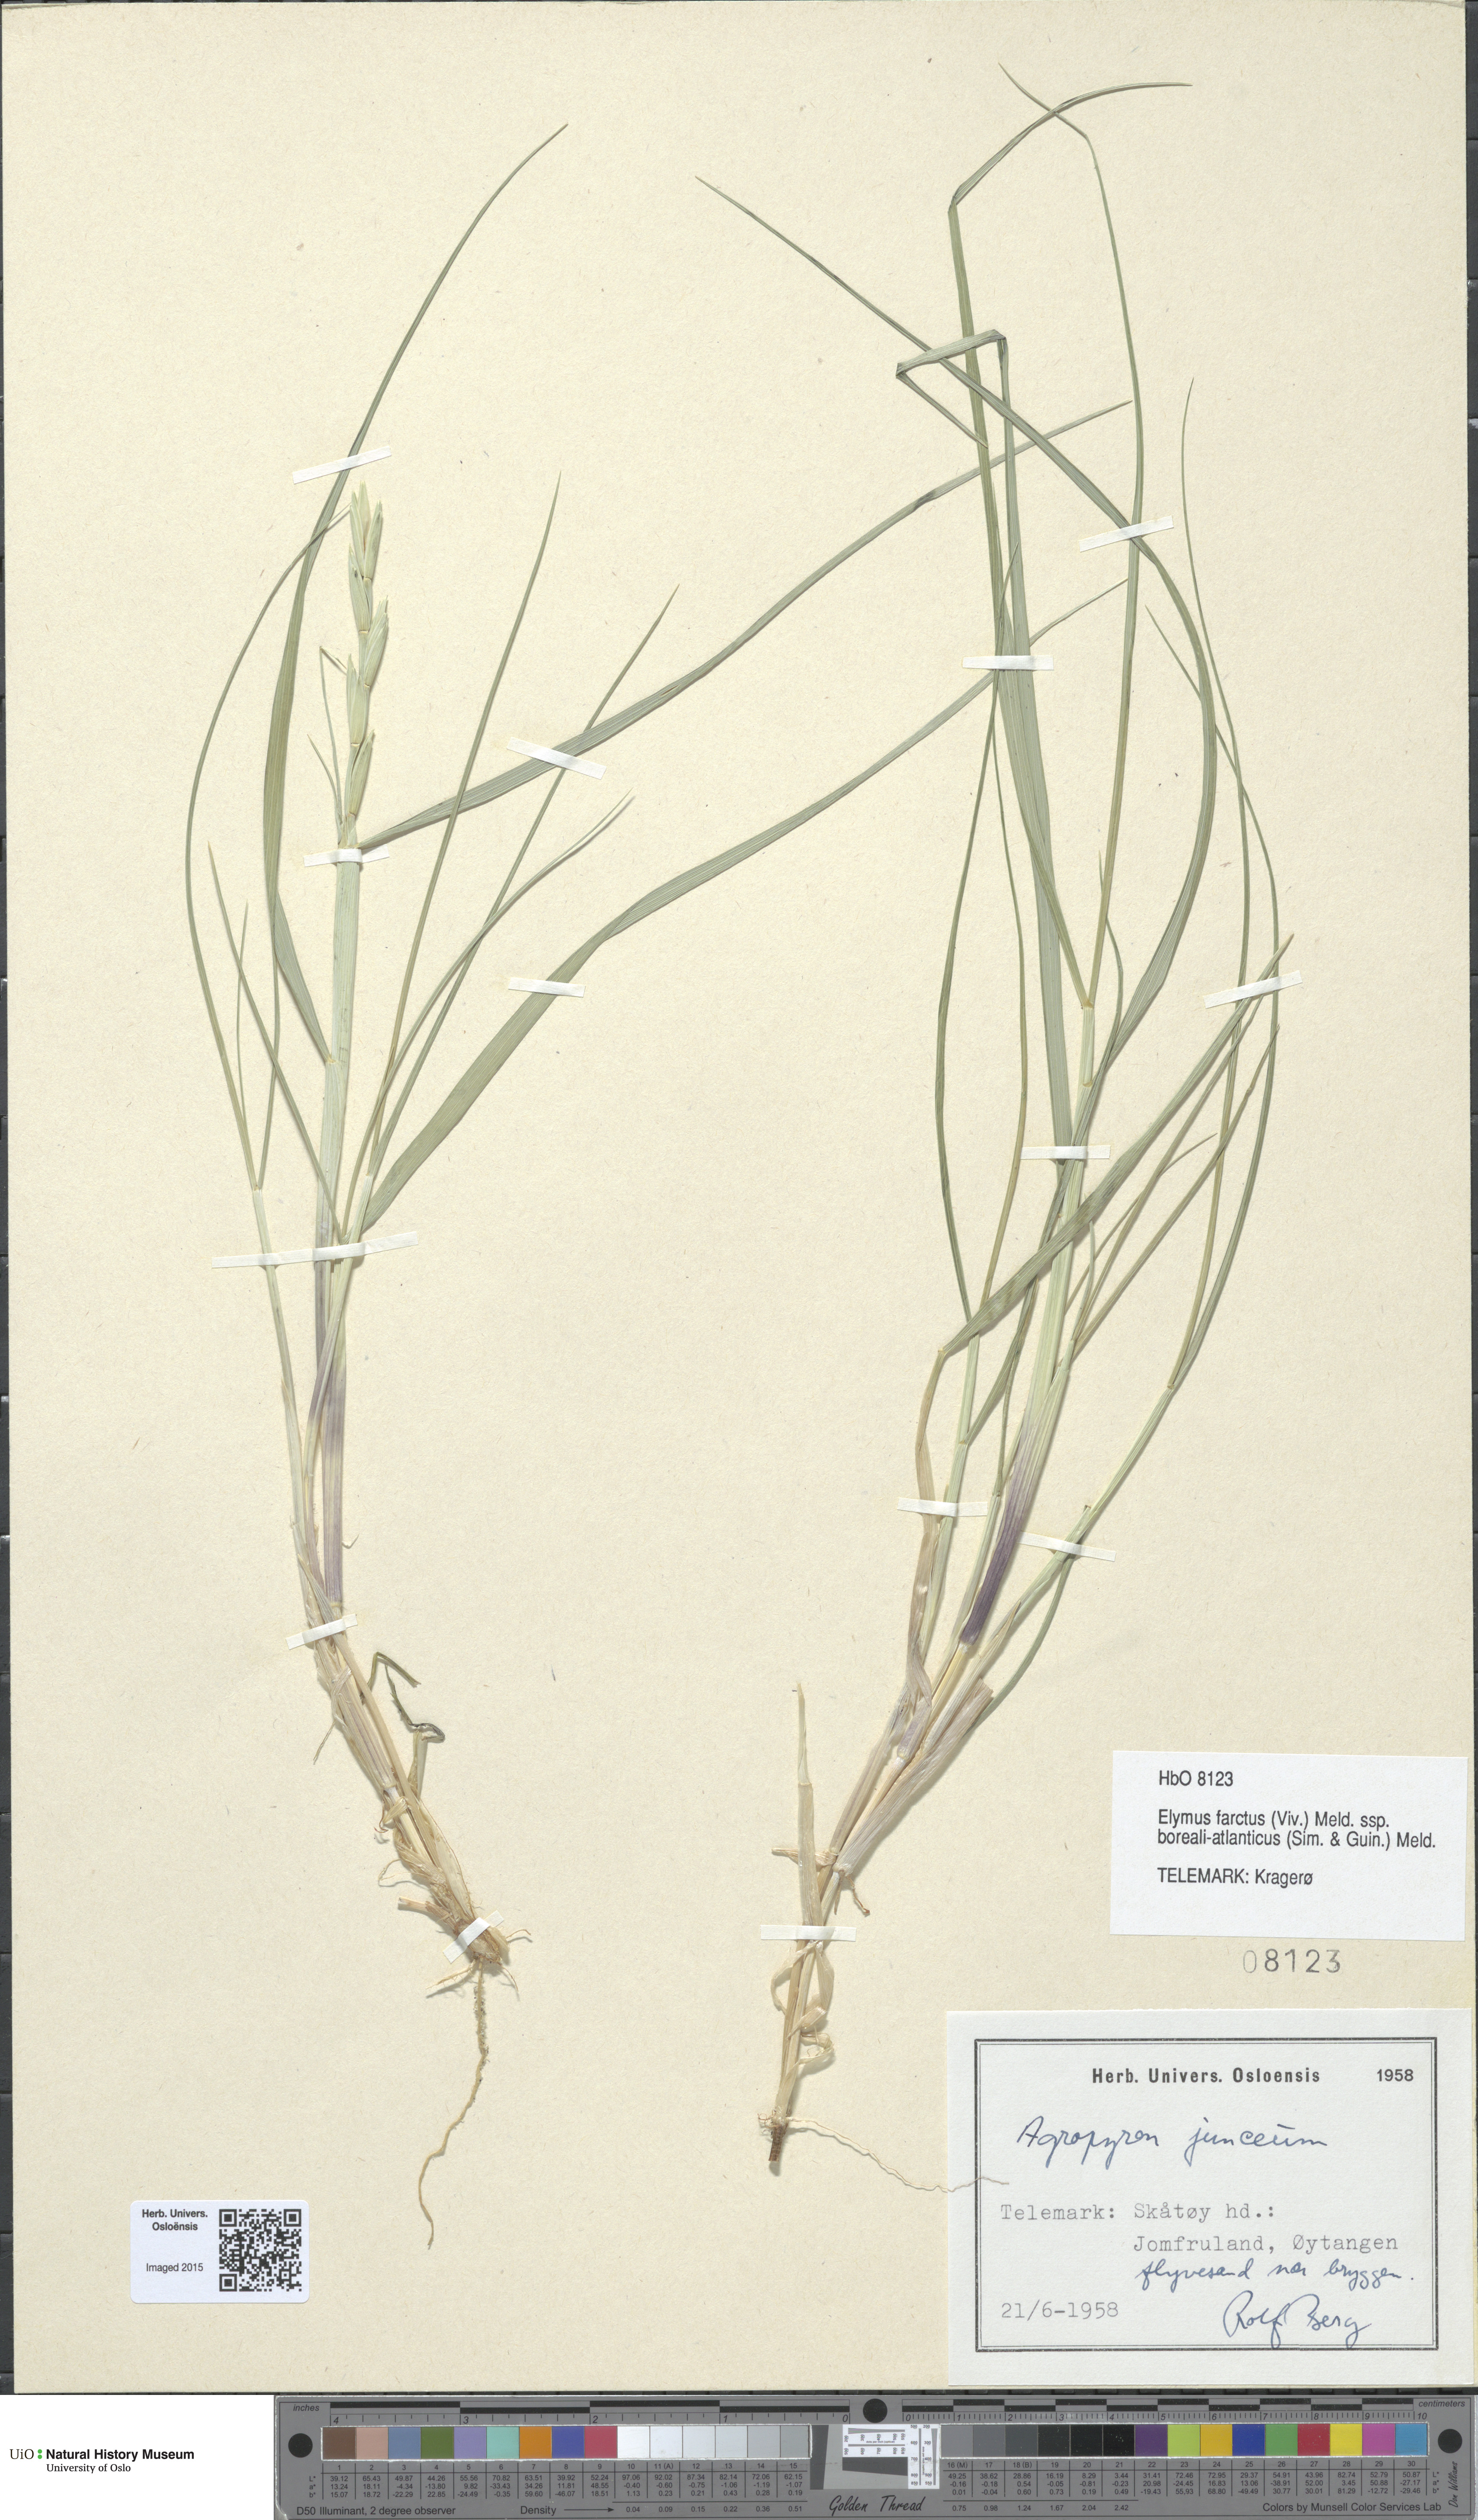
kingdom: Plantae
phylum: Tracheophyta
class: Liliopsida
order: Poales
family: Poaceae
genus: Thinopyrum
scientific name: Thinopyrum junceum
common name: Russian wheatgrass
